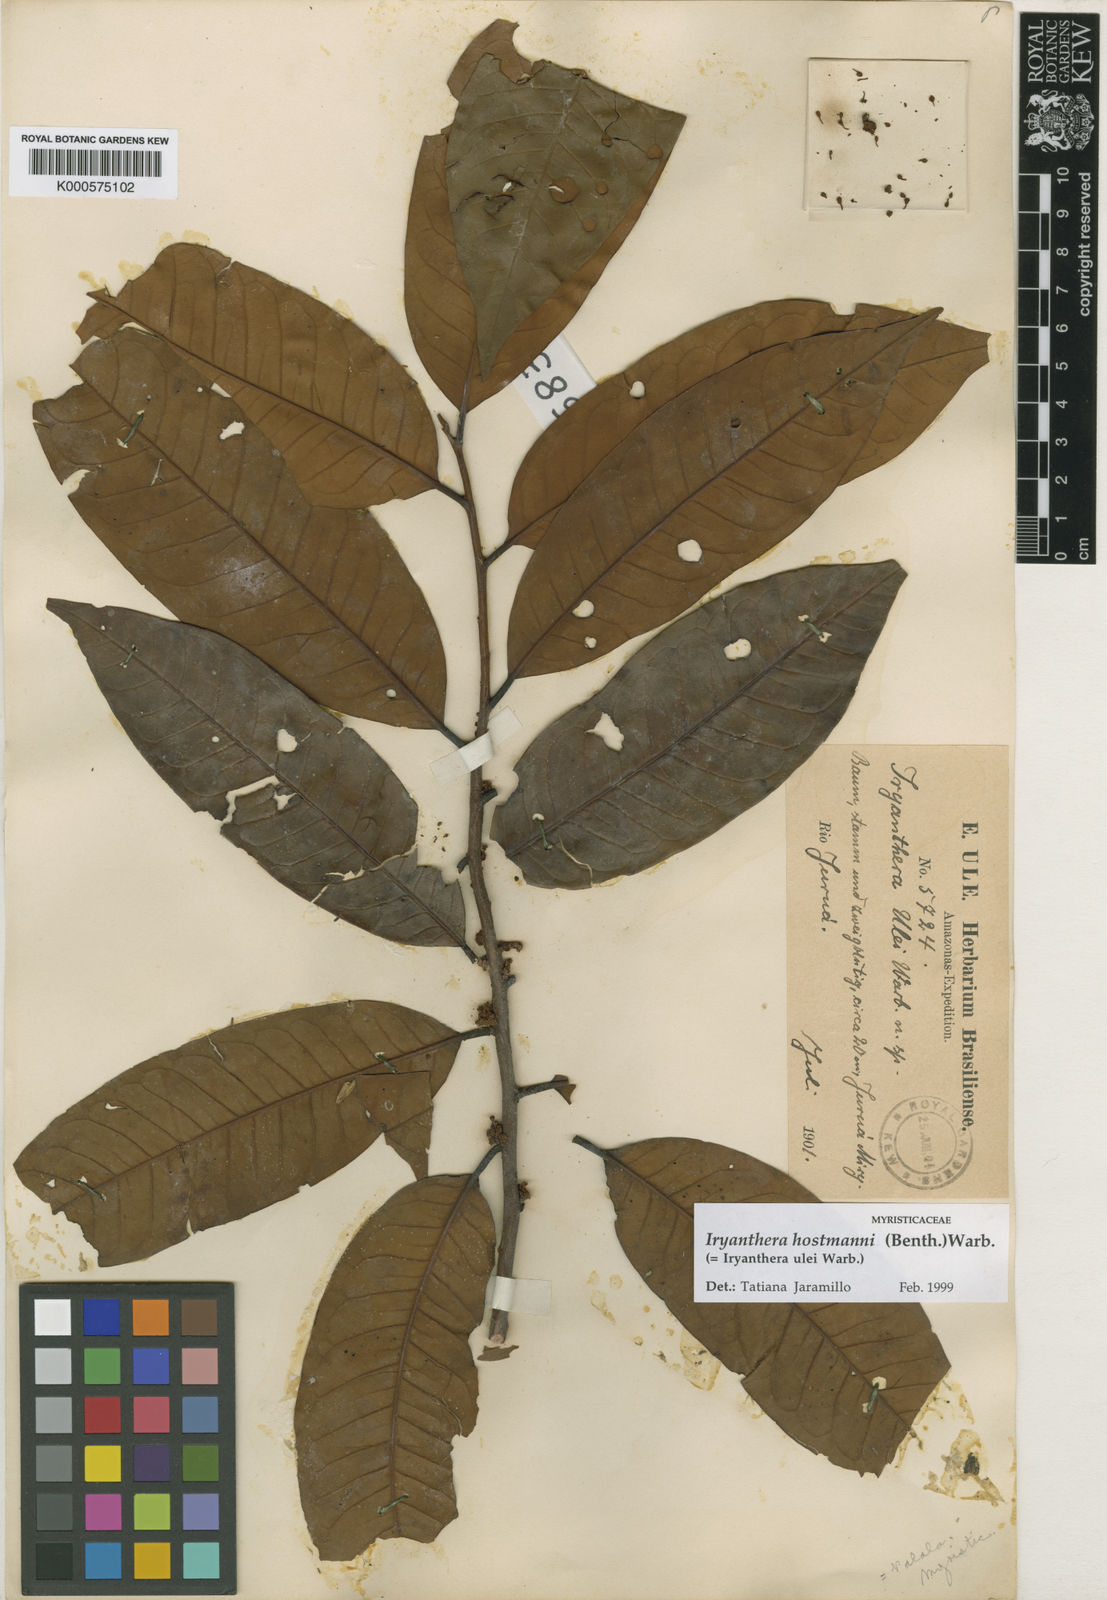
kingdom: Plantae
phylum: Tracheophyta
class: Magnoliopsida
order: Magnoliales
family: Myristicaceae
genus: Iryanthera
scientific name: Iryanthera hostmannii
